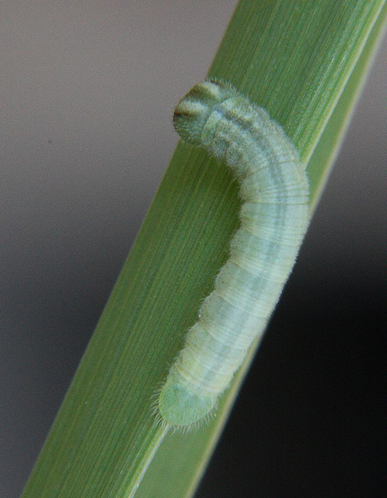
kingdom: Animalia
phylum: Arthropoda
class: Insecta
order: Lepidoptera
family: Hesperiidae
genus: Thymelicus
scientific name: Thymelicus lineola
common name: European Skipper
